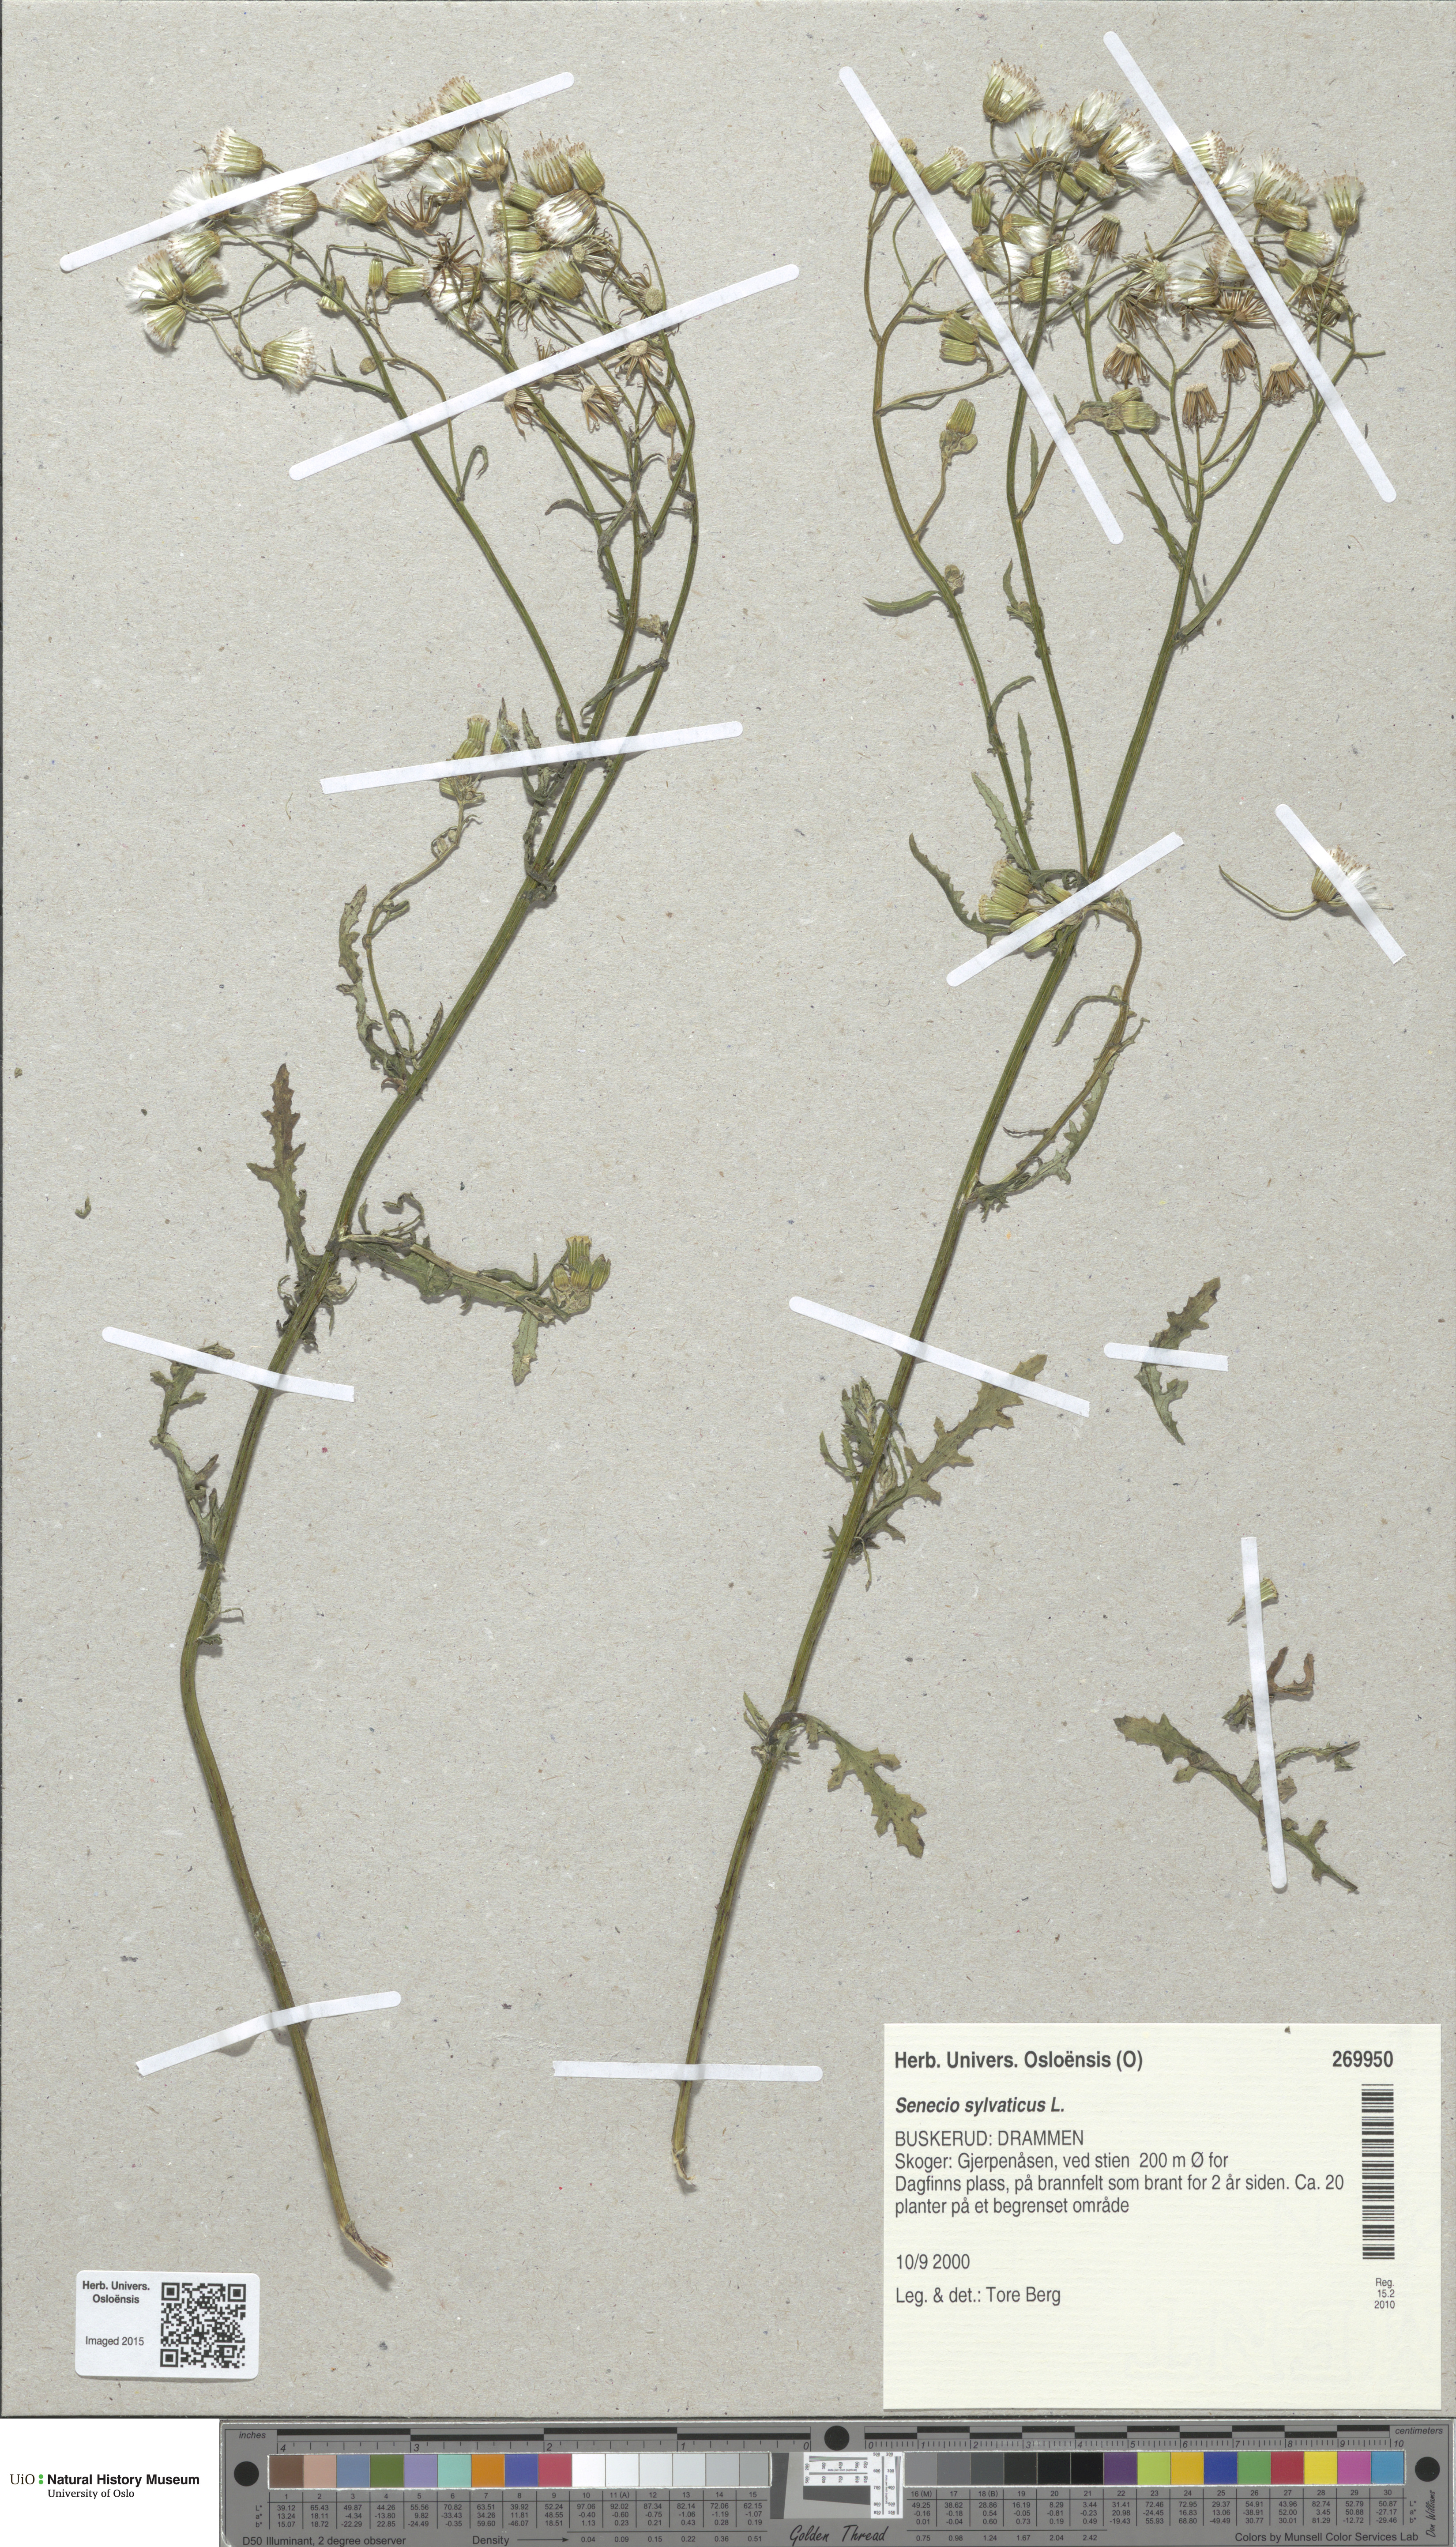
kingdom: Plantae
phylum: Tracheophyta
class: Magnoliopsida
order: Asterales
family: Asteraceae
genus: Senecio
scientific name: Senecio sylvaticus
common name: Woodland ragwort
